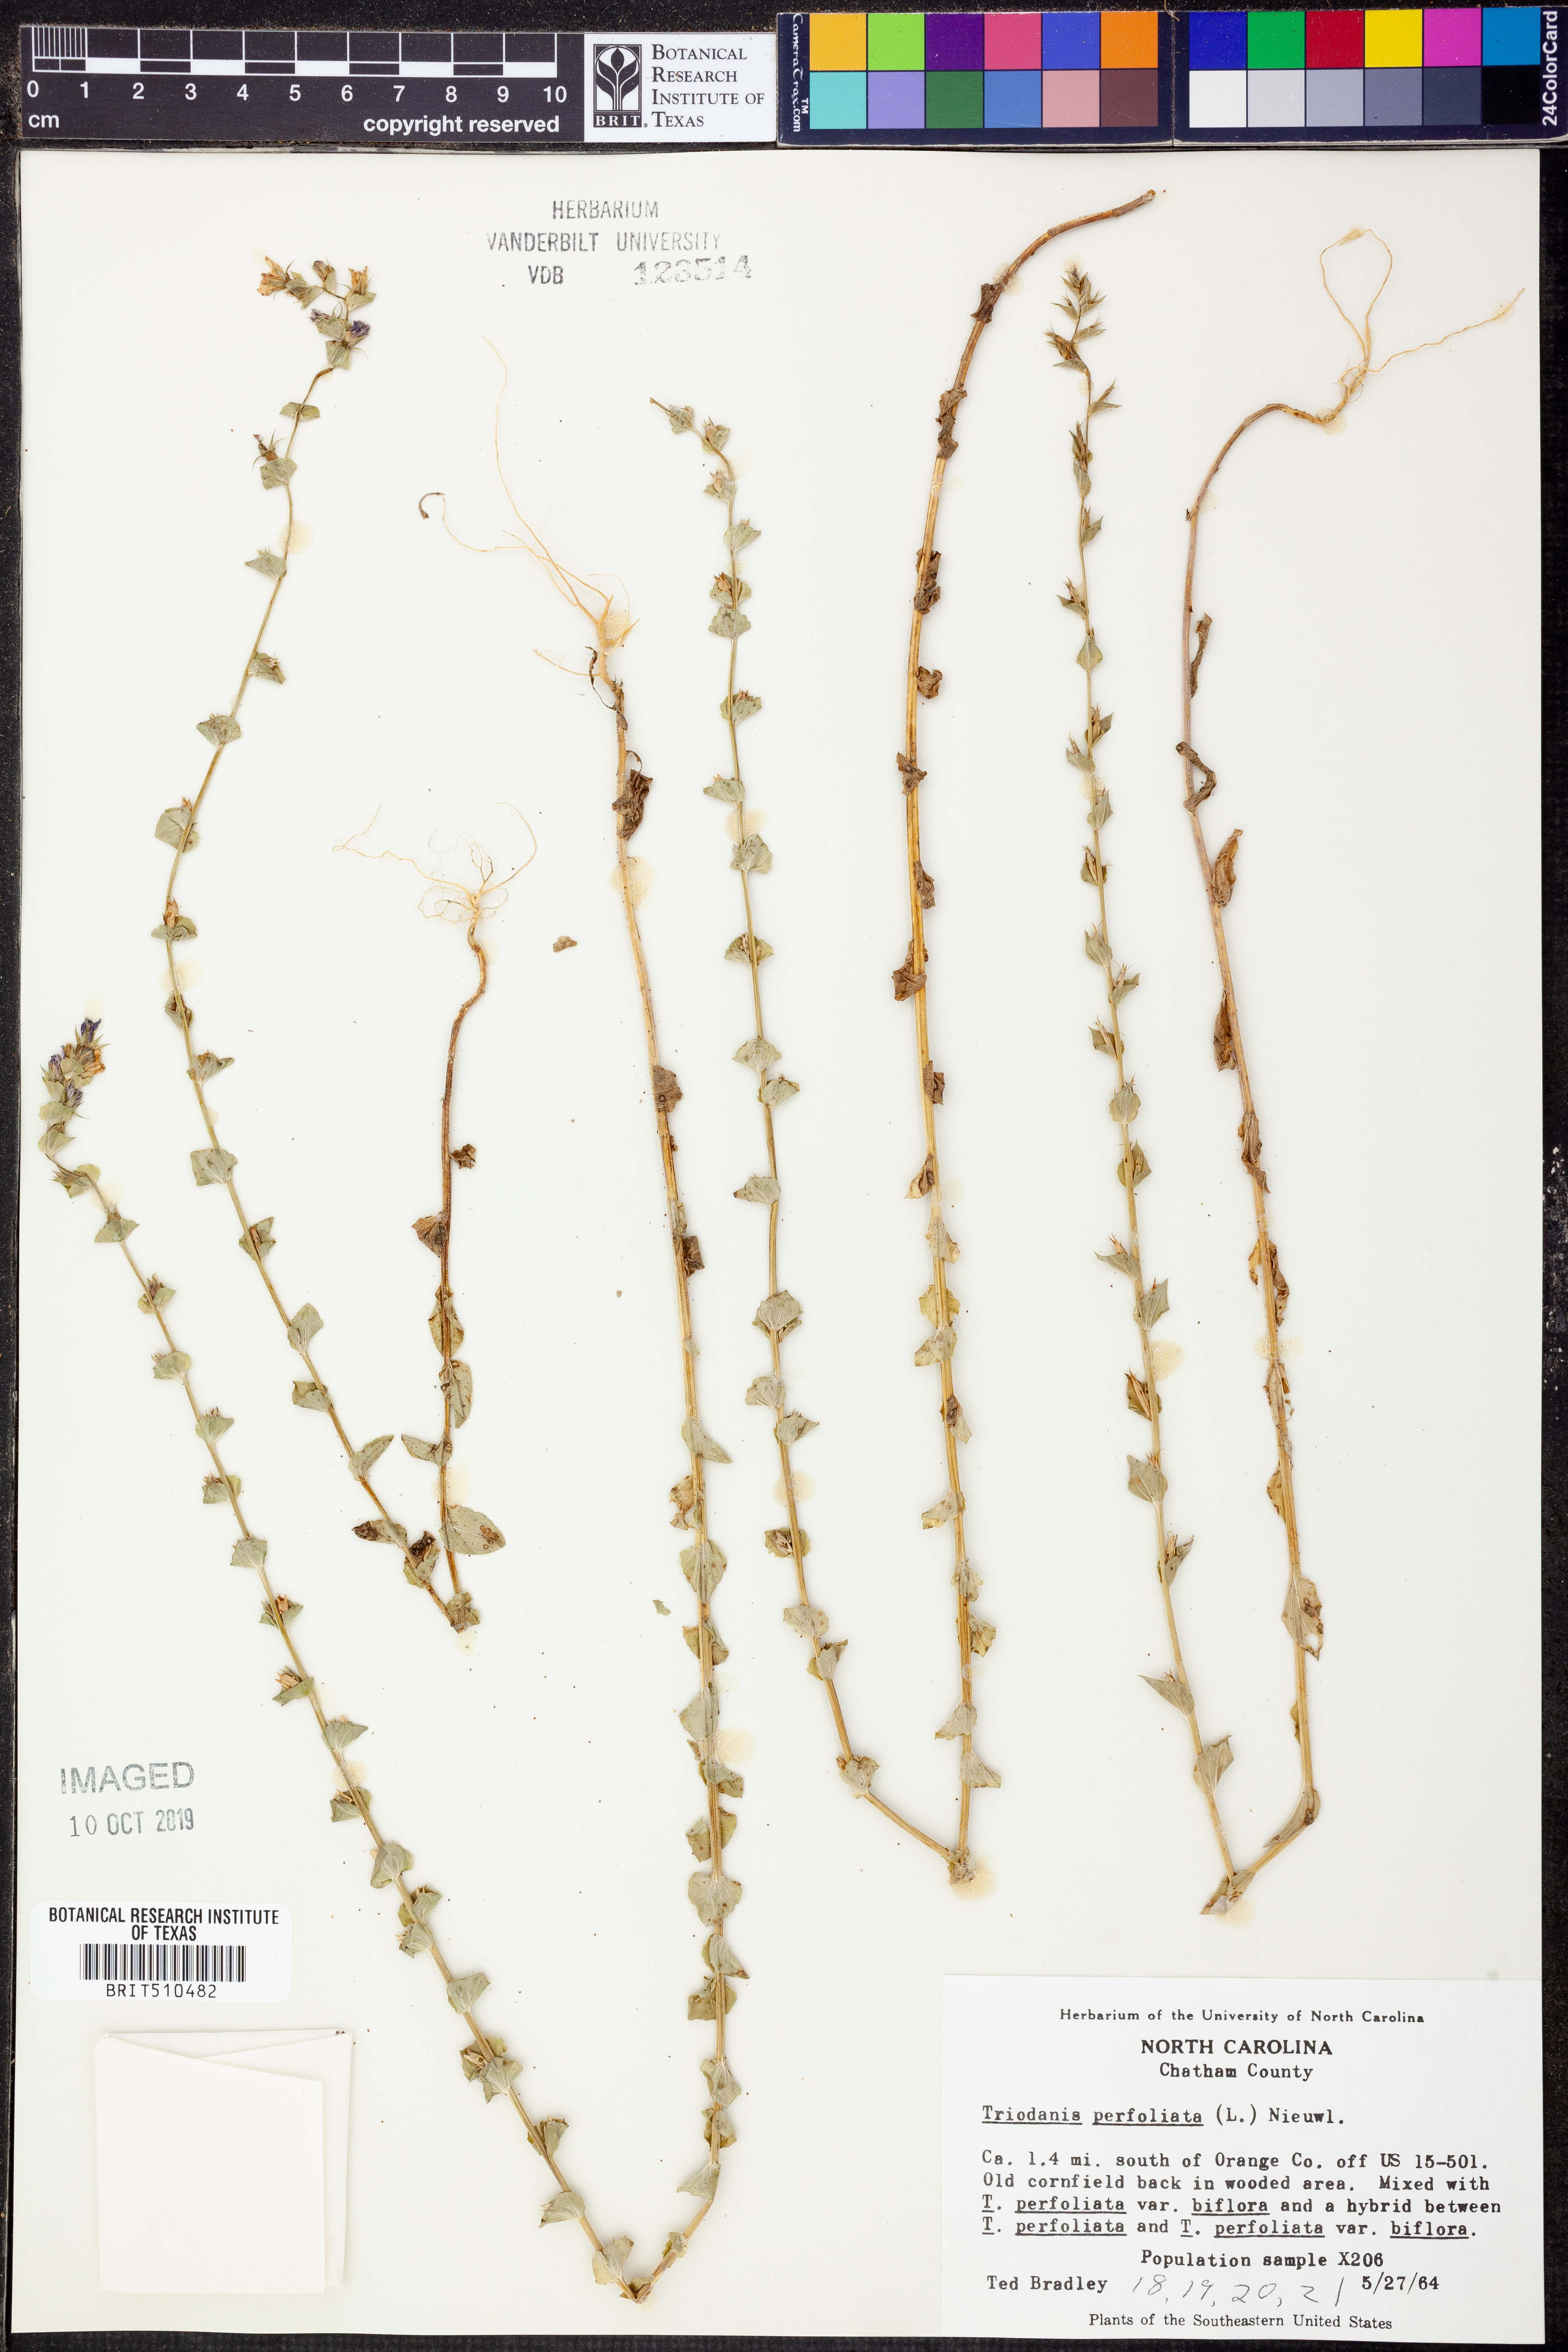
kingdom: Plantae
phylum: Tracheophyta
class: Magnoliopsida
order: Asterales
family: Campanulaceae
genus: Triodanis
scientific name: Triodanis perfoliata
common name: Clasping venus' looking-glass
